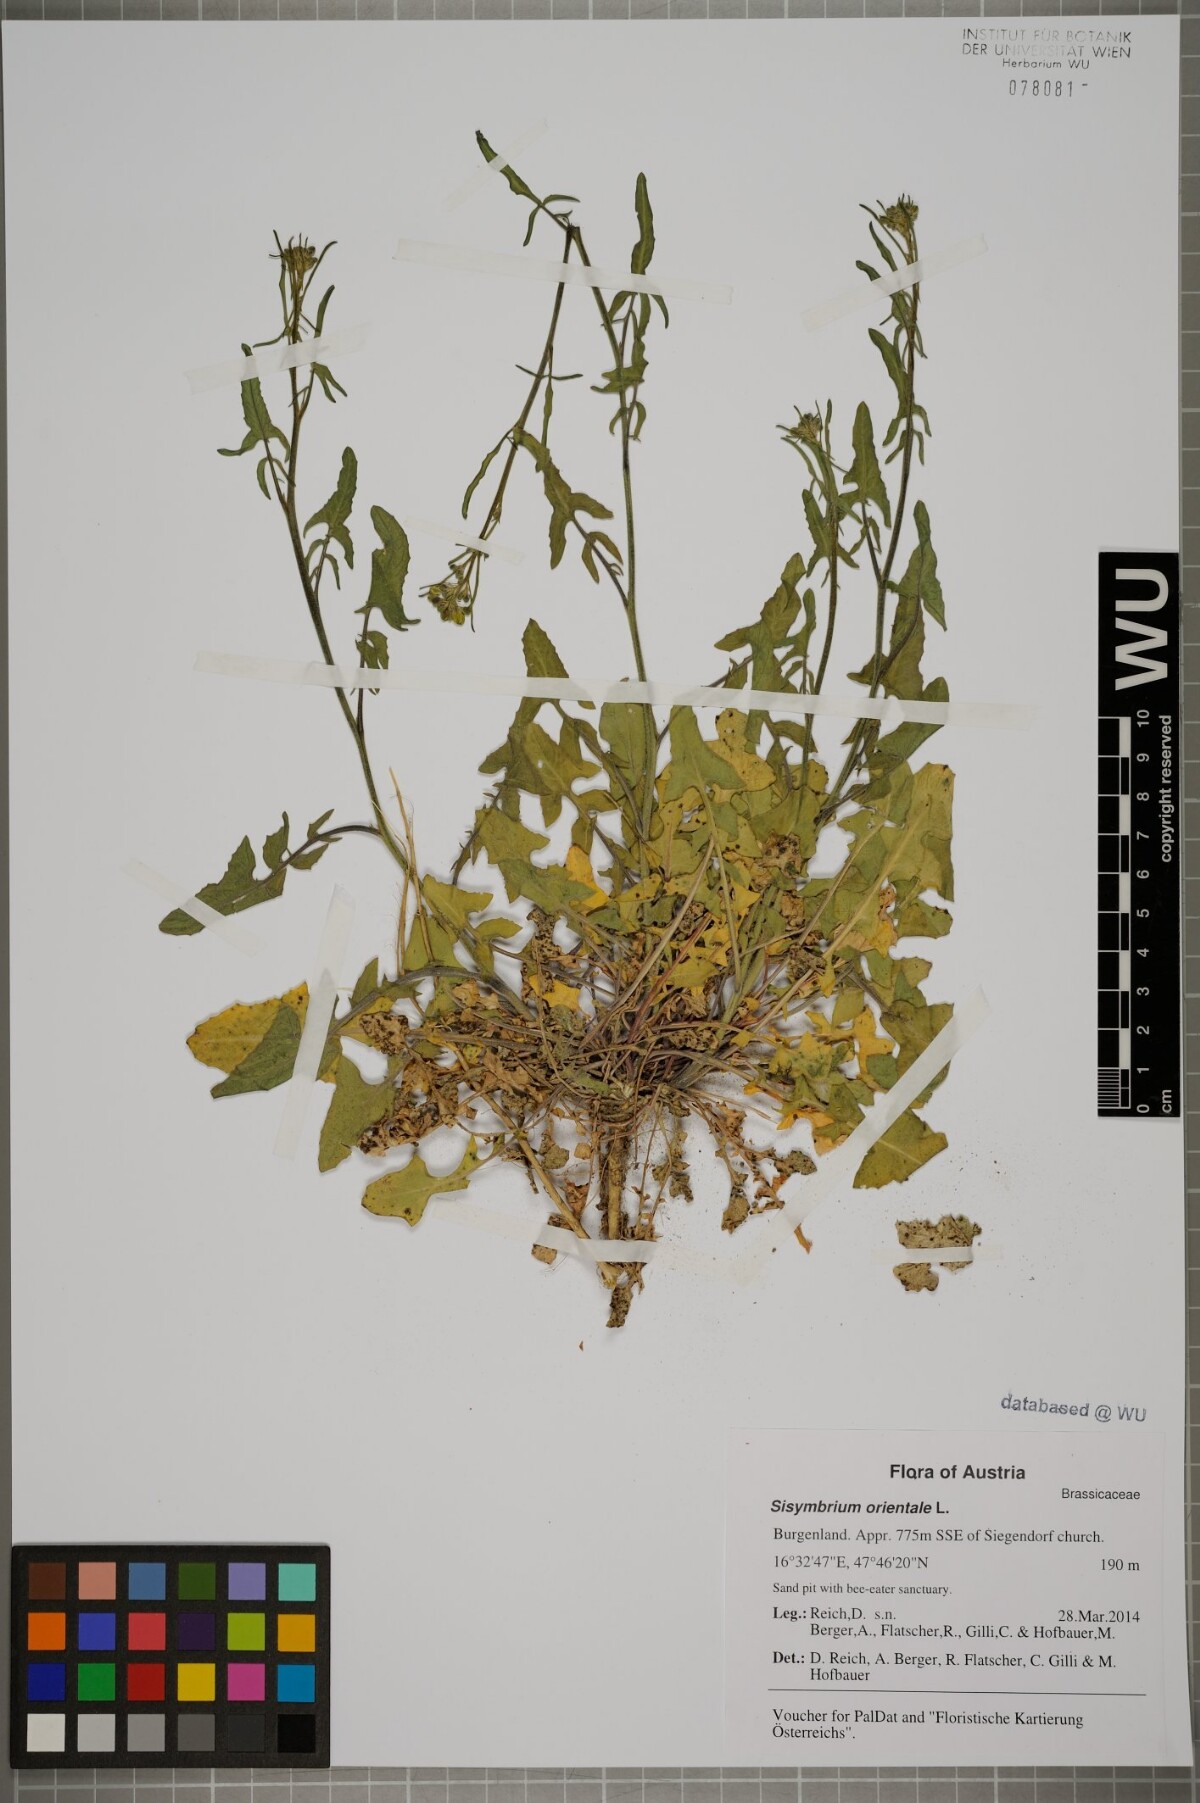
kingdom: Plantae
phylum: Tracheophyta
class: Magnoliopsida
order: Brassicales
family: Brassicaceae
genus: Sisymbrium
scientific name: Sisymbrium orientale
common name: Eastern rocket
